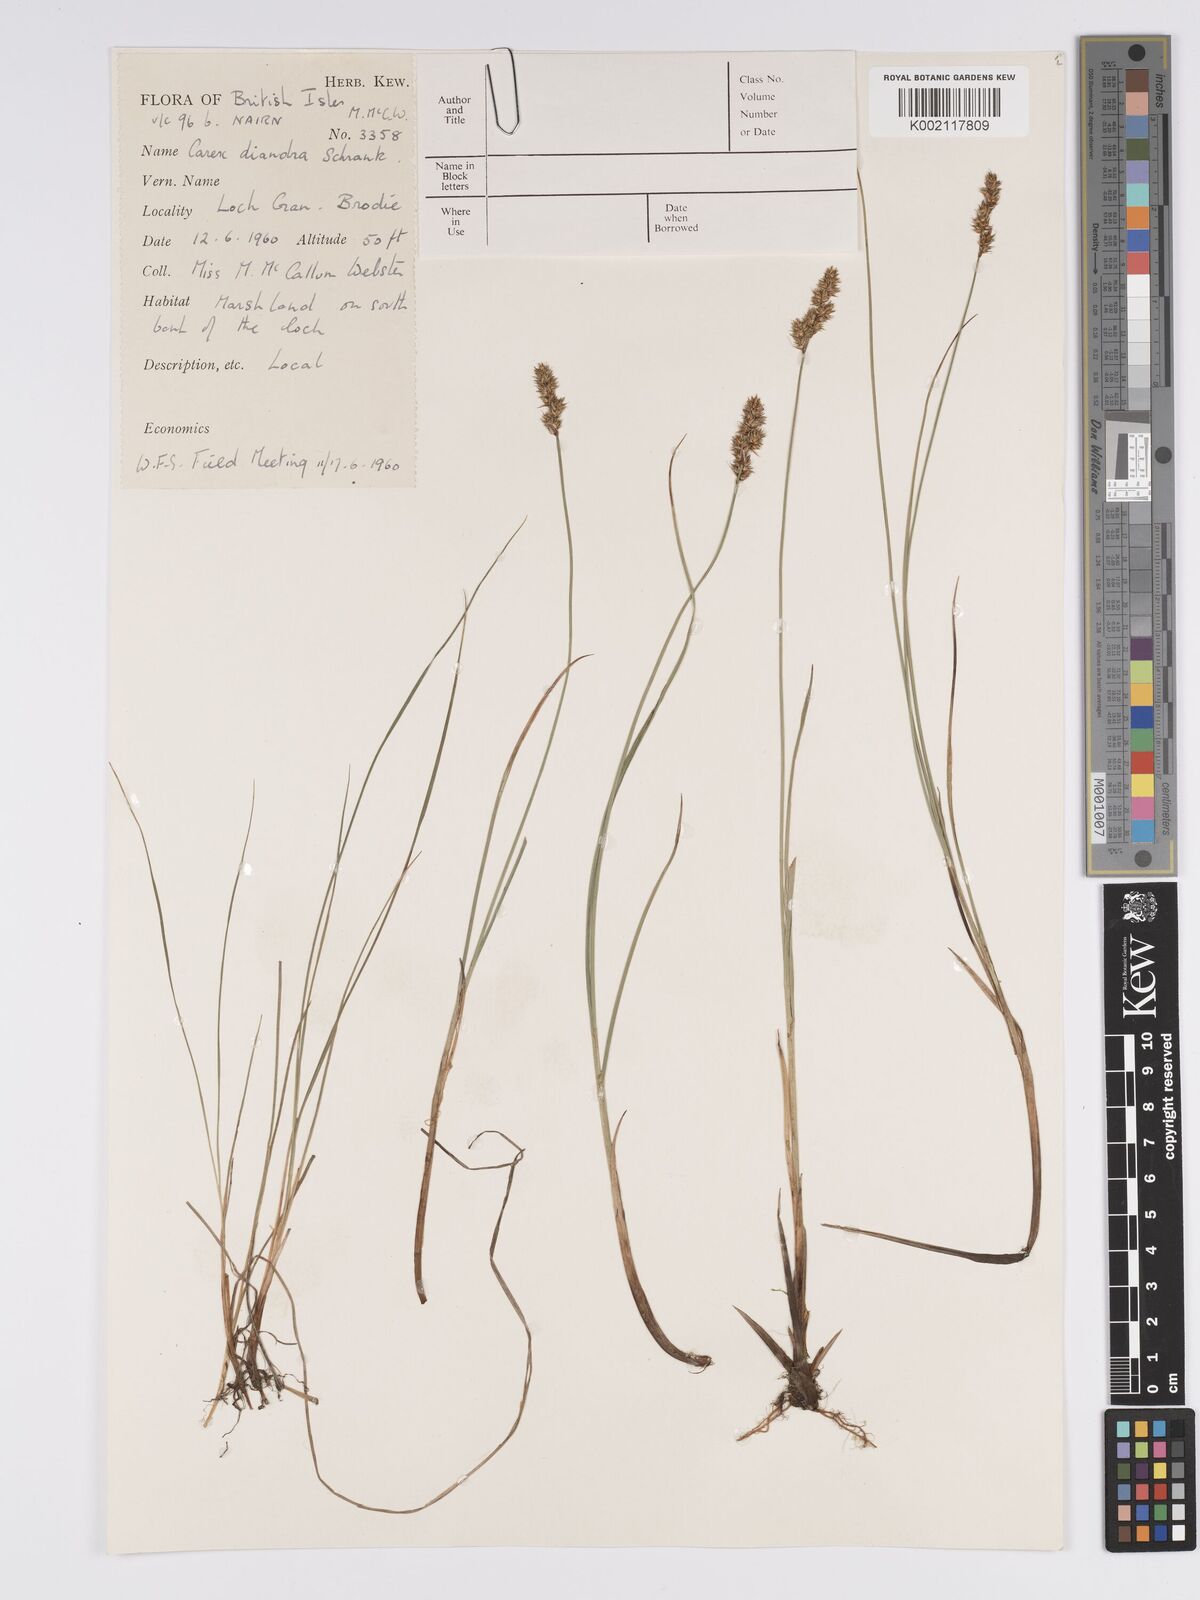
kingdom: Plantae
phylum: Tracheophyta
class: Liliopsida
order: Poales
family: Cyperaceae
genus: Carex
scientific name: Carex diandra
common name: Lesser tussock-sedge
